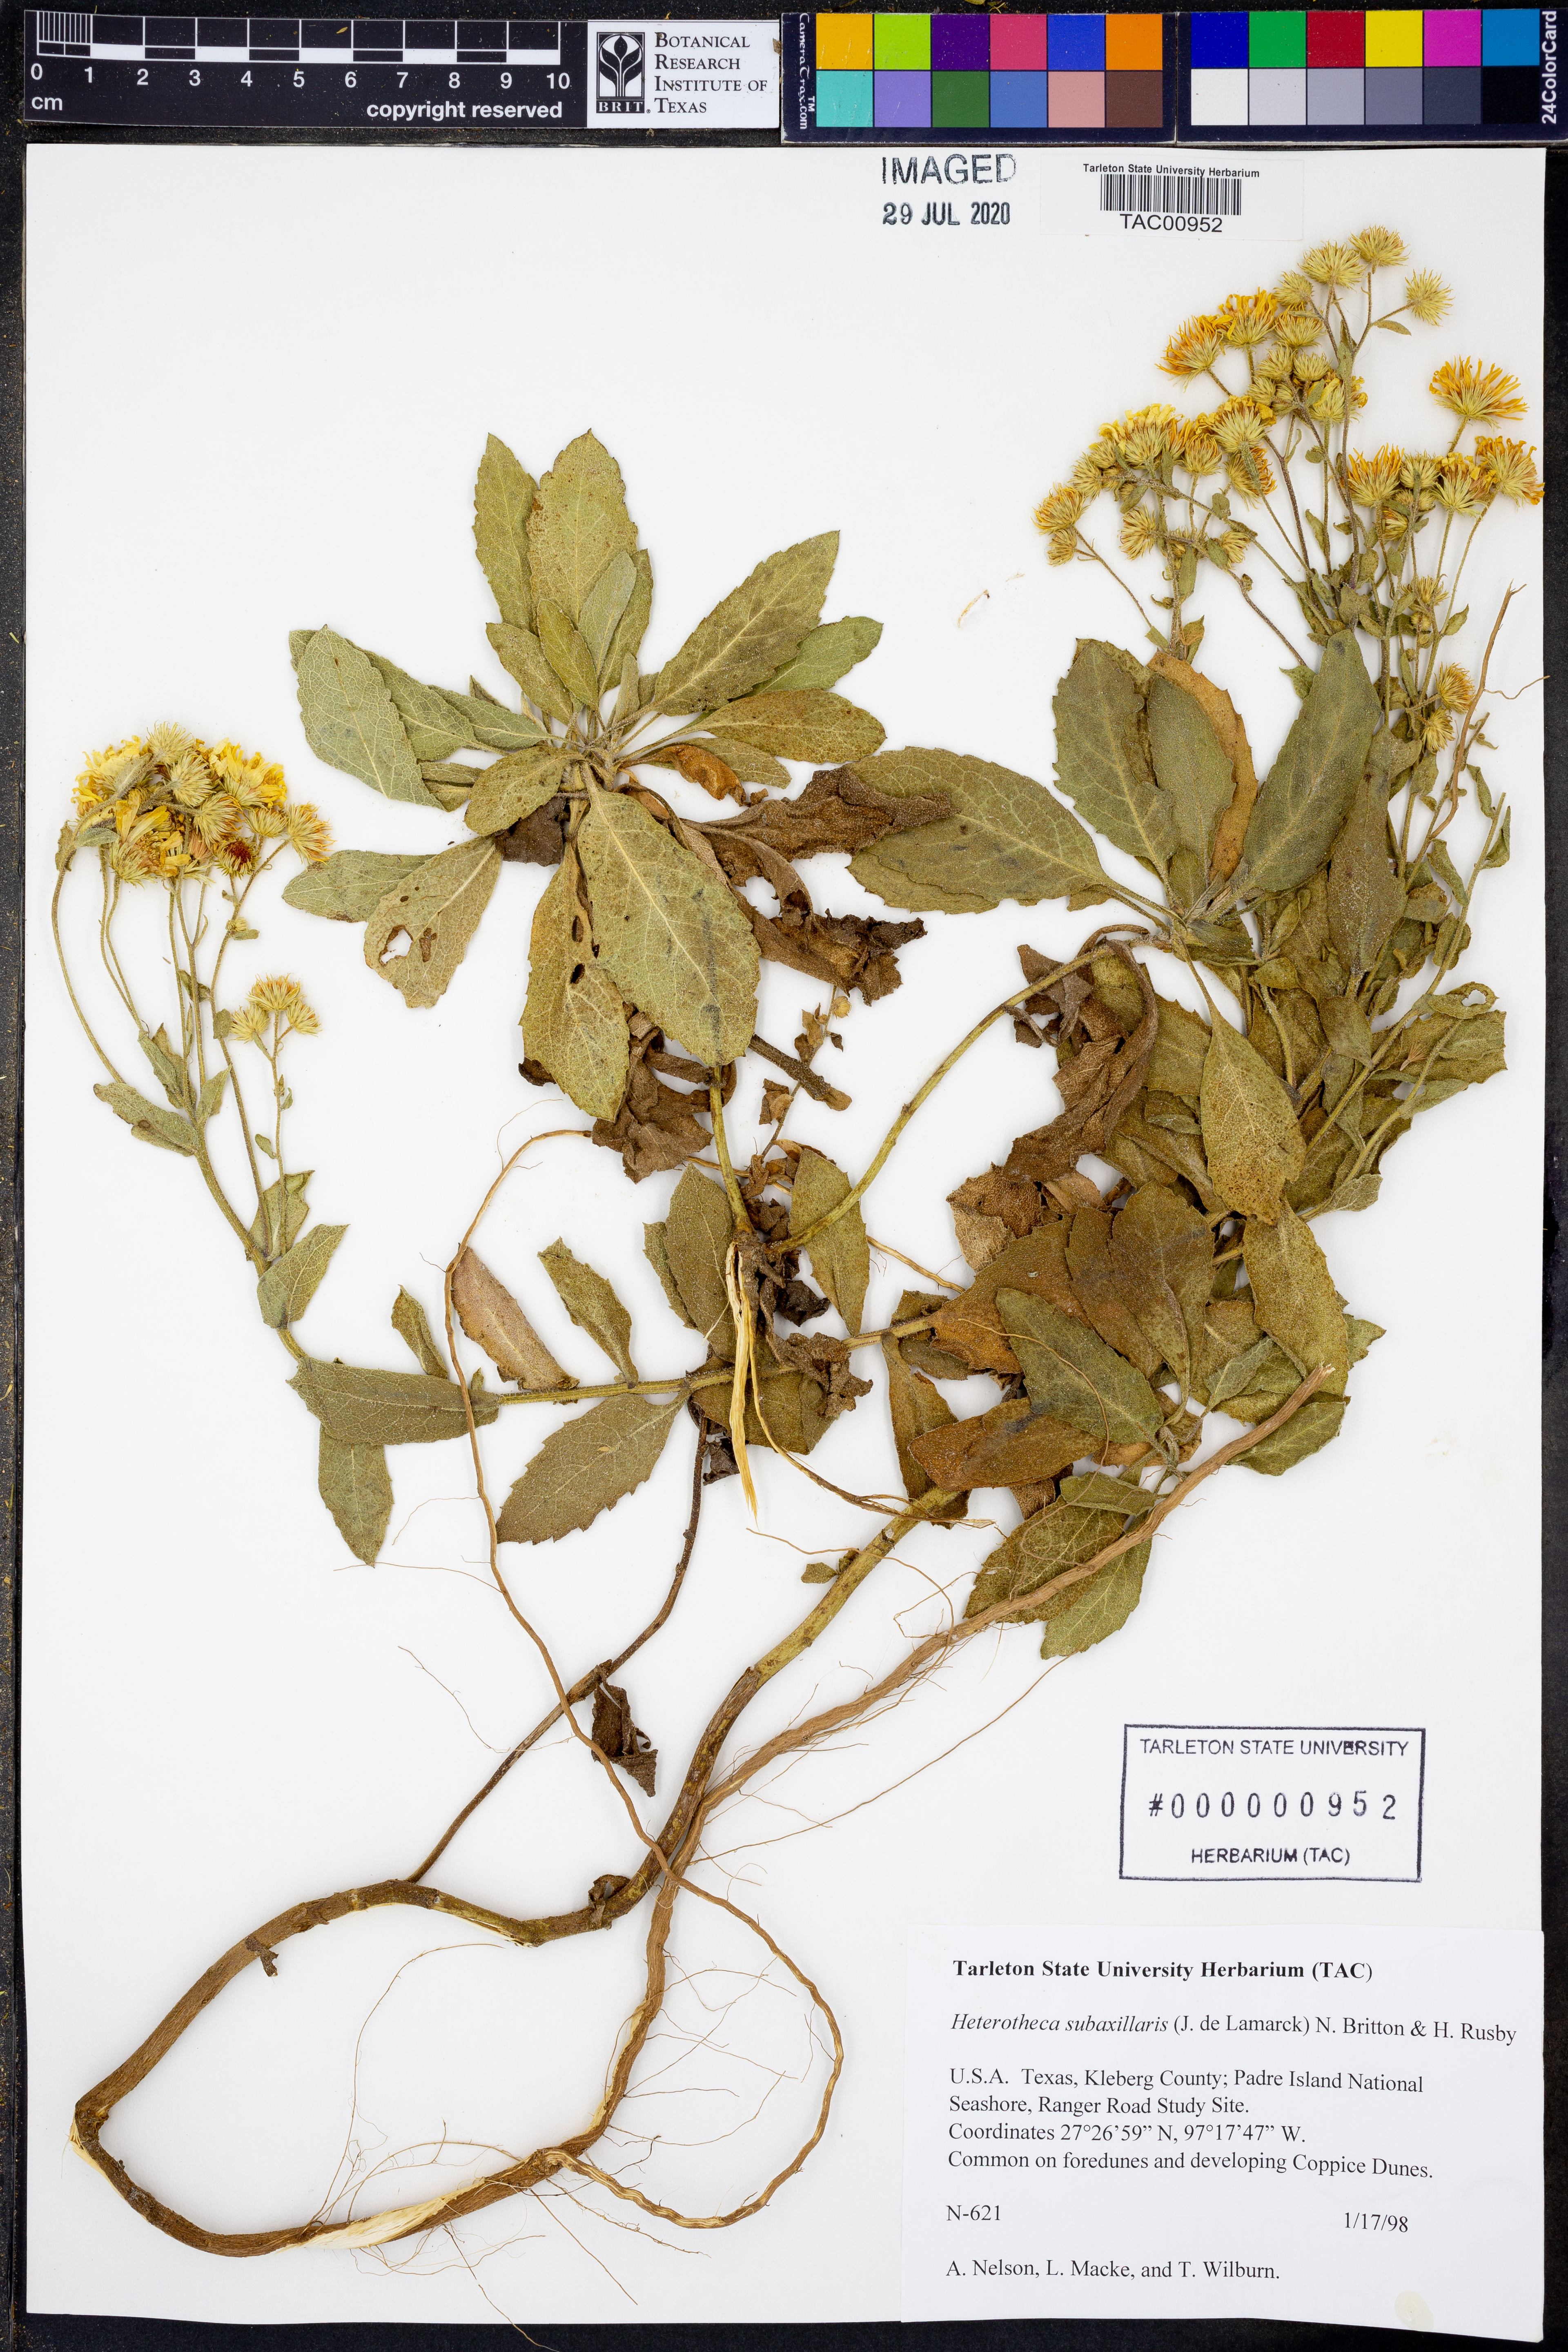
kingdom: Plantae
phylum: Tracheophyta
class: Magnoliopsida
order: Asterales
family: Asteraceae
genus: Heterotheca
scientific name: Heterotheca subaxillaris
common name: Camphorweed
